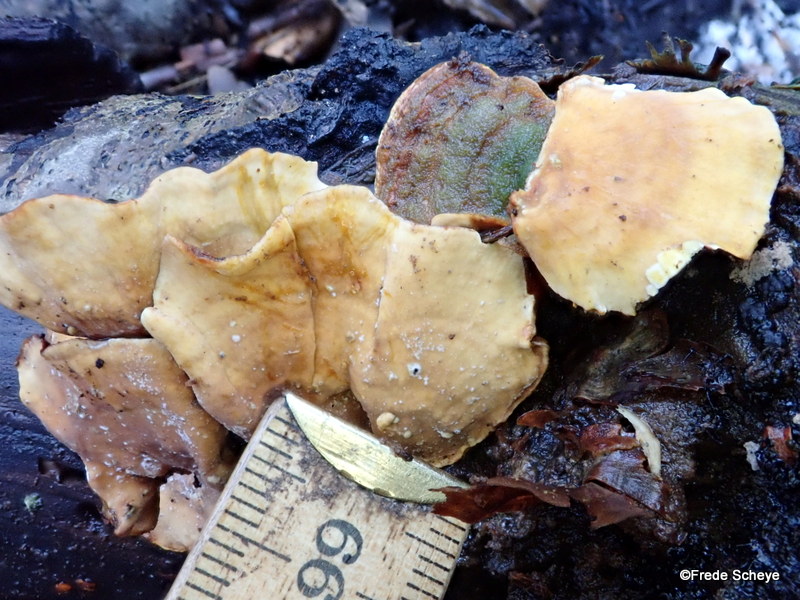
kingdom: Fungi
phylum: Basidiomycota
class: Agaricomycetes
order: Russulales
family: Stereaceae
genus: Stereum
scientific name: Stereum subtomentosum
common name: smuk lædersvamp
